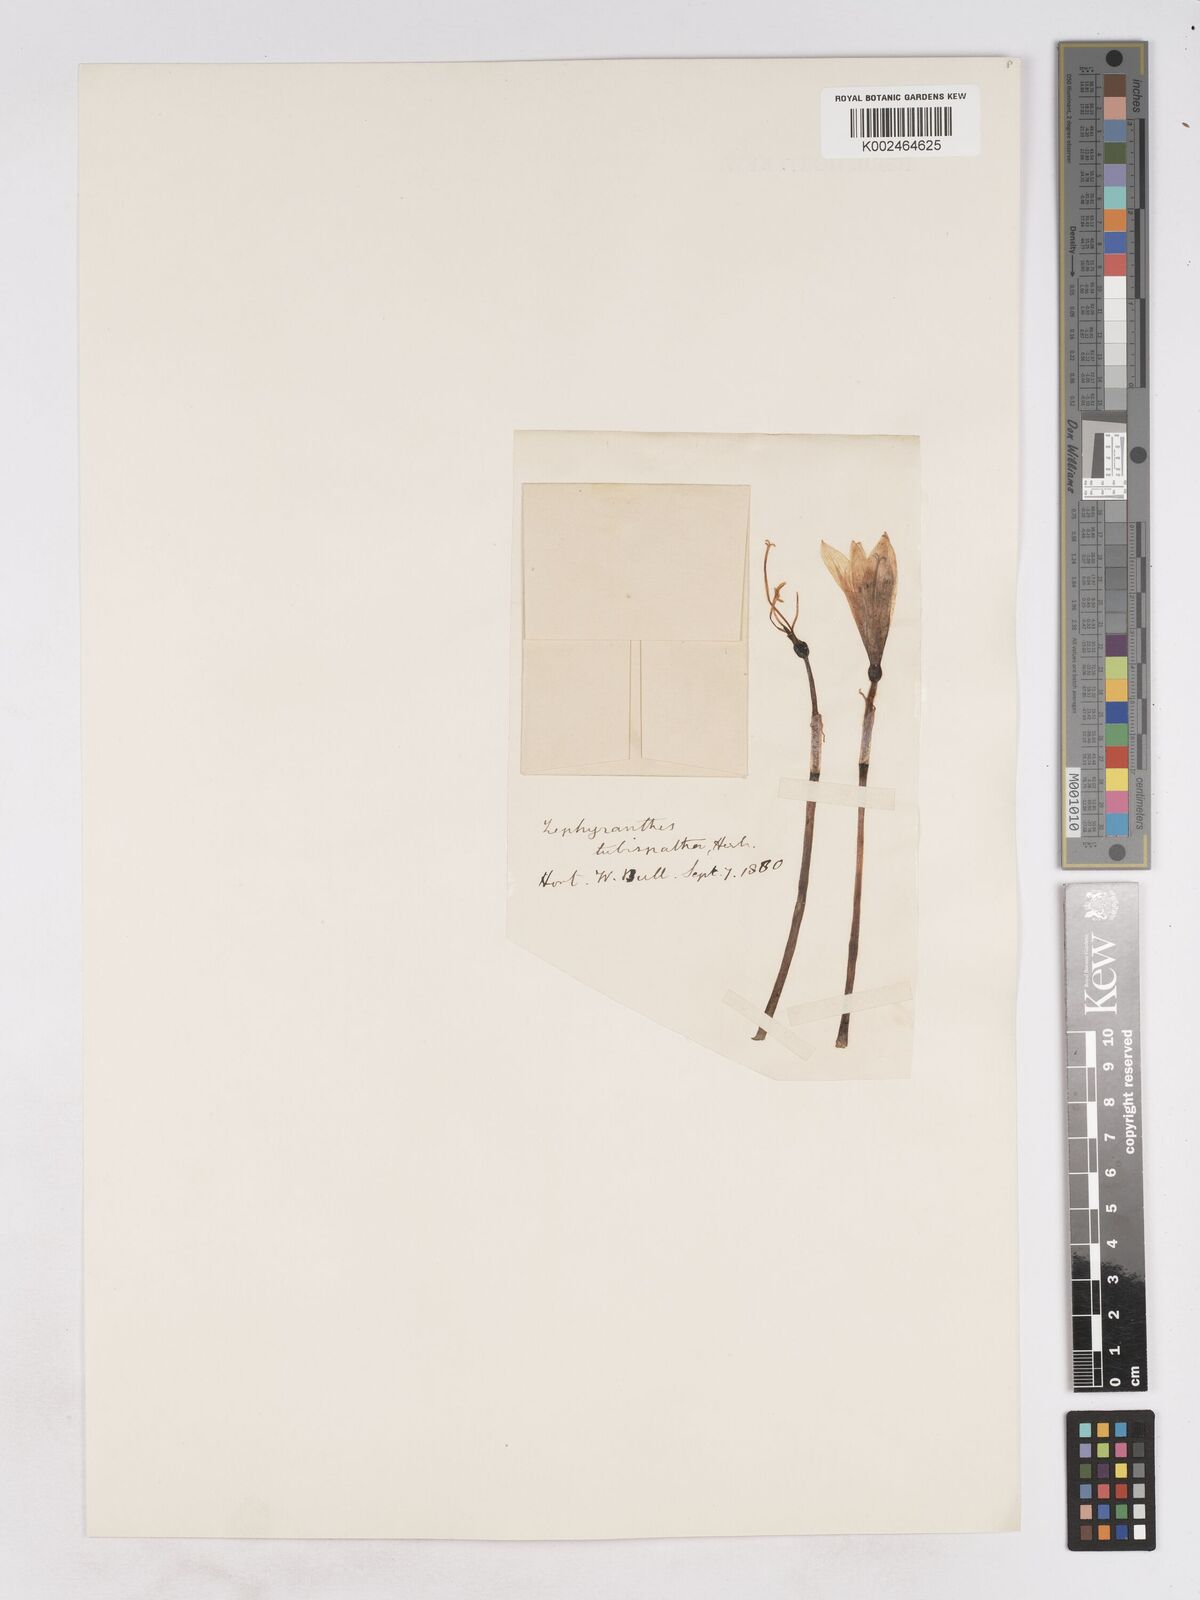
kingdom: Plantae
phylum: Tracheophyta
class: Liliopsida
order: Asparagales
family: Amaryllidaceae
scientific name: Amaryllidaceae
